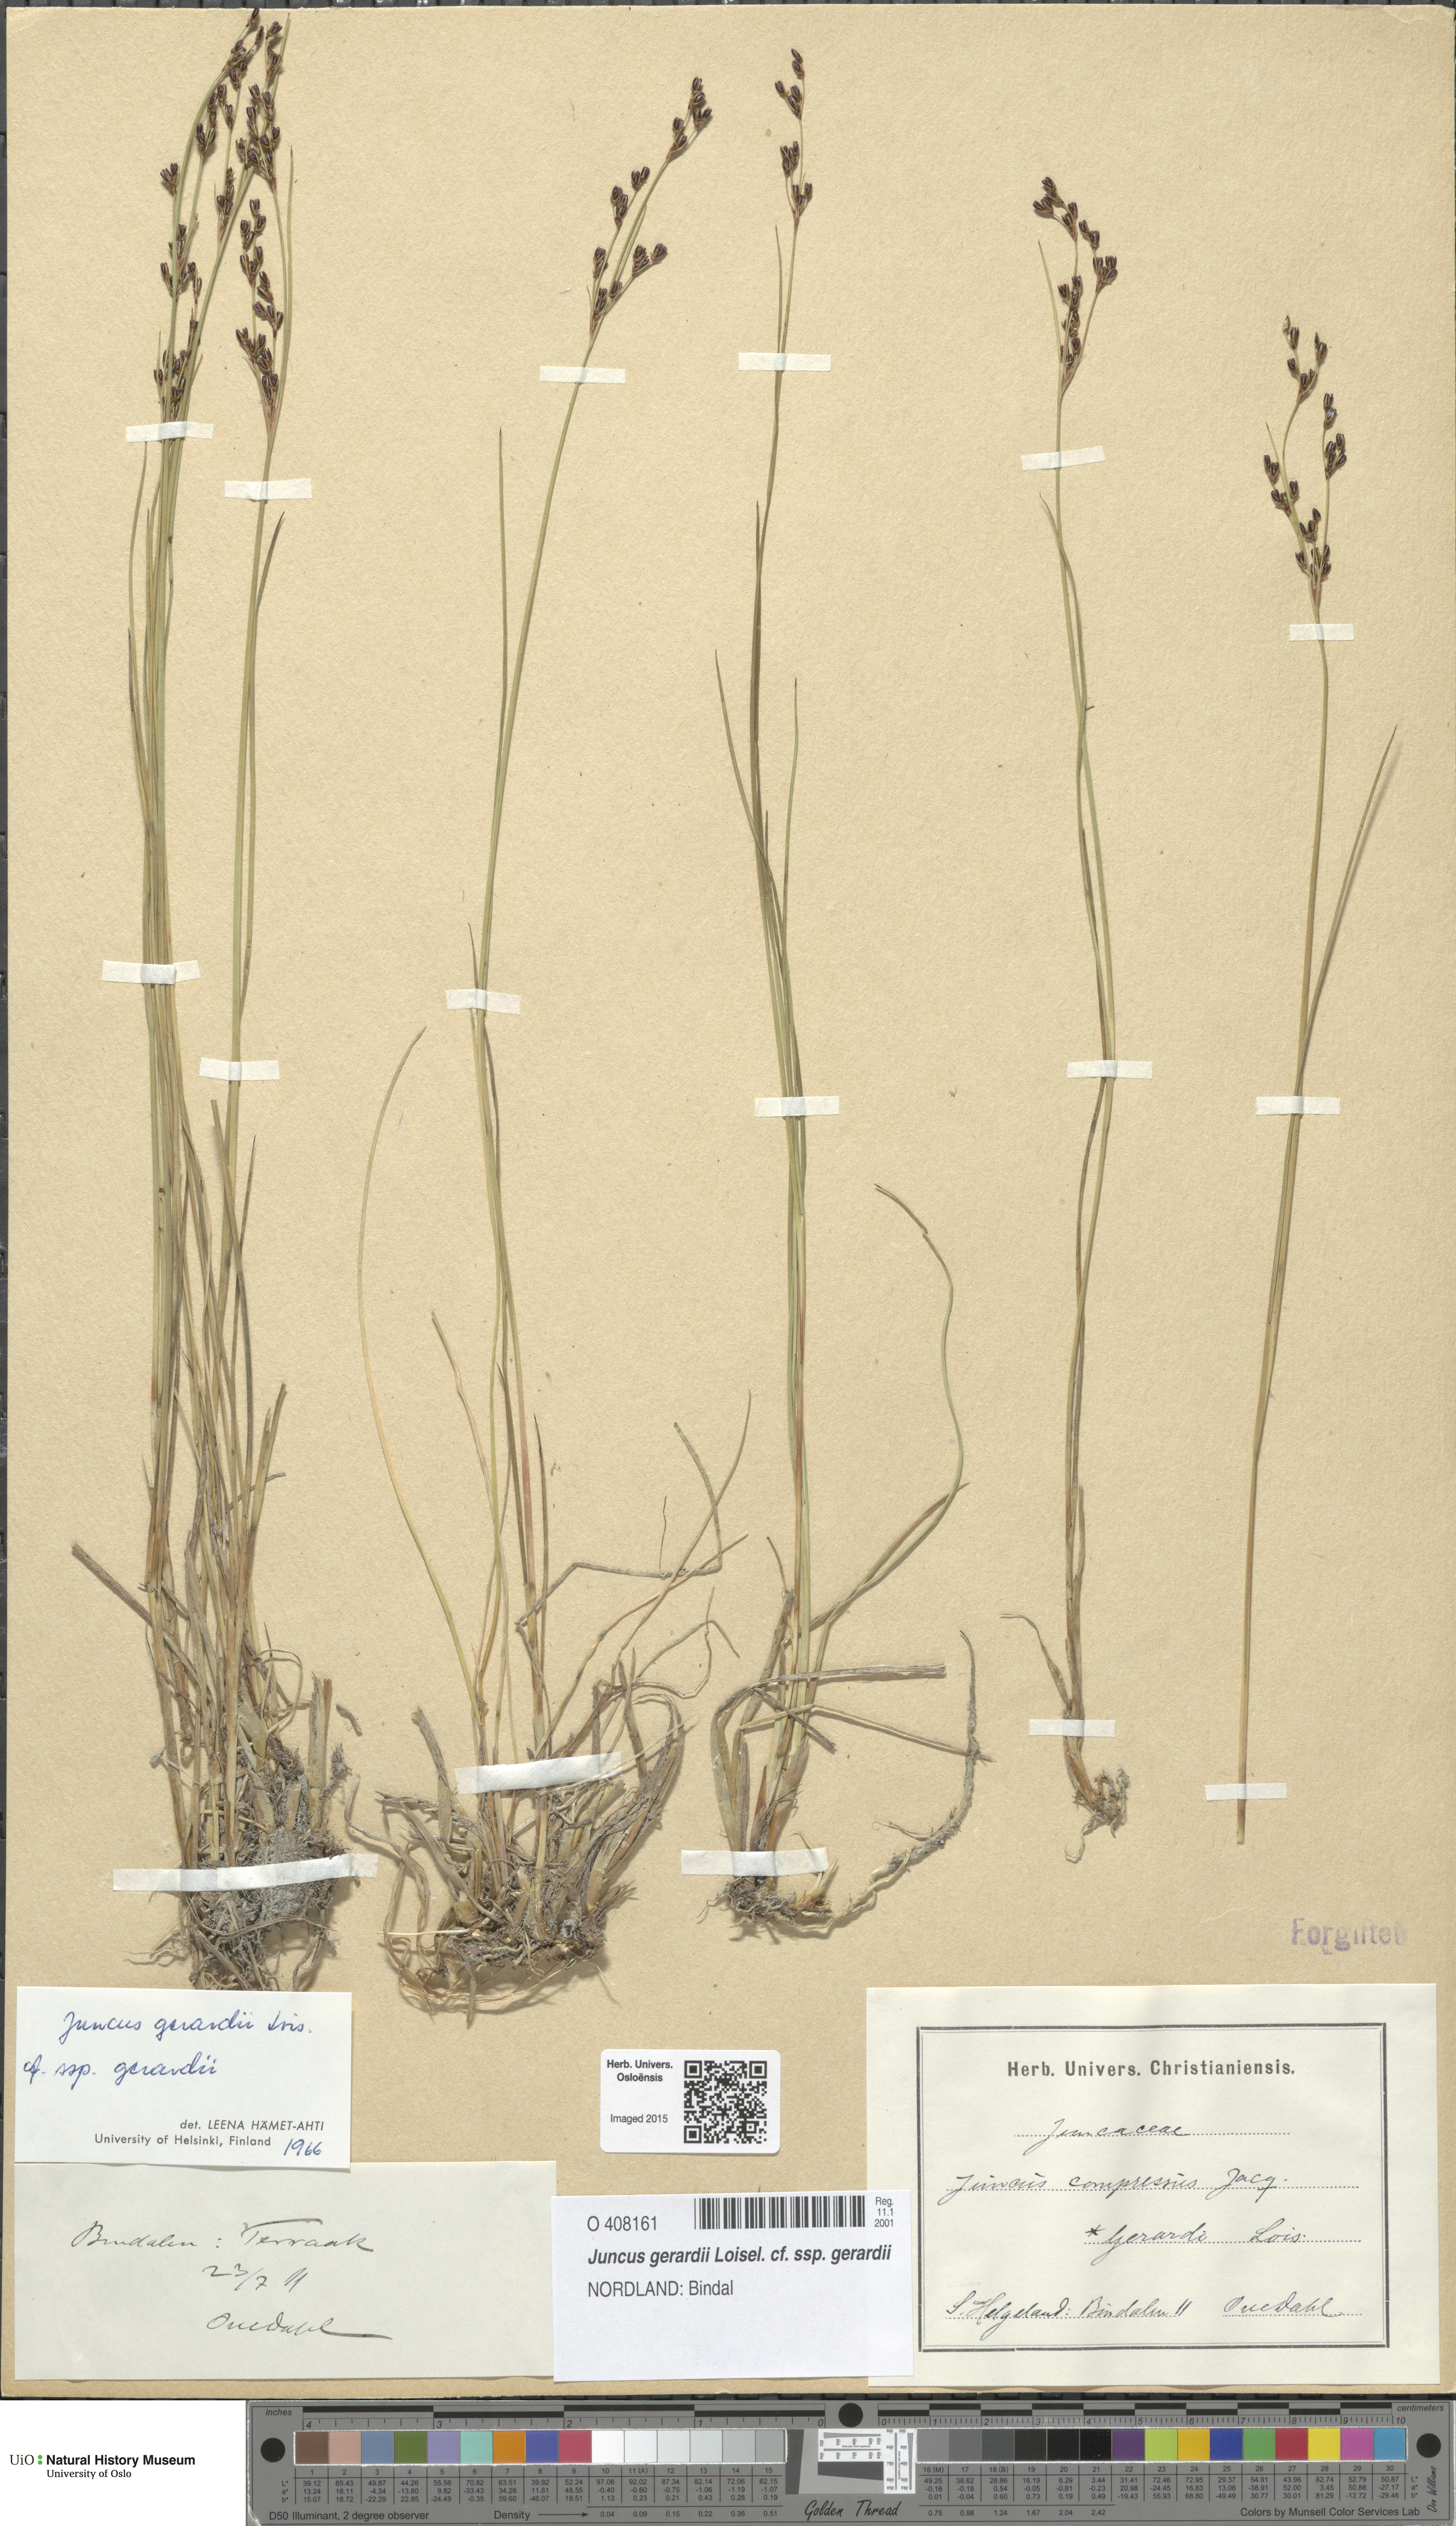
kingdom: Plantae
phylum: Tracheophyta
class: Liliopsida
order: Poales
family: Juncaceae
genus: Juncus
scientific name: Juncus gerardi
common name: Saltmarsh rush
